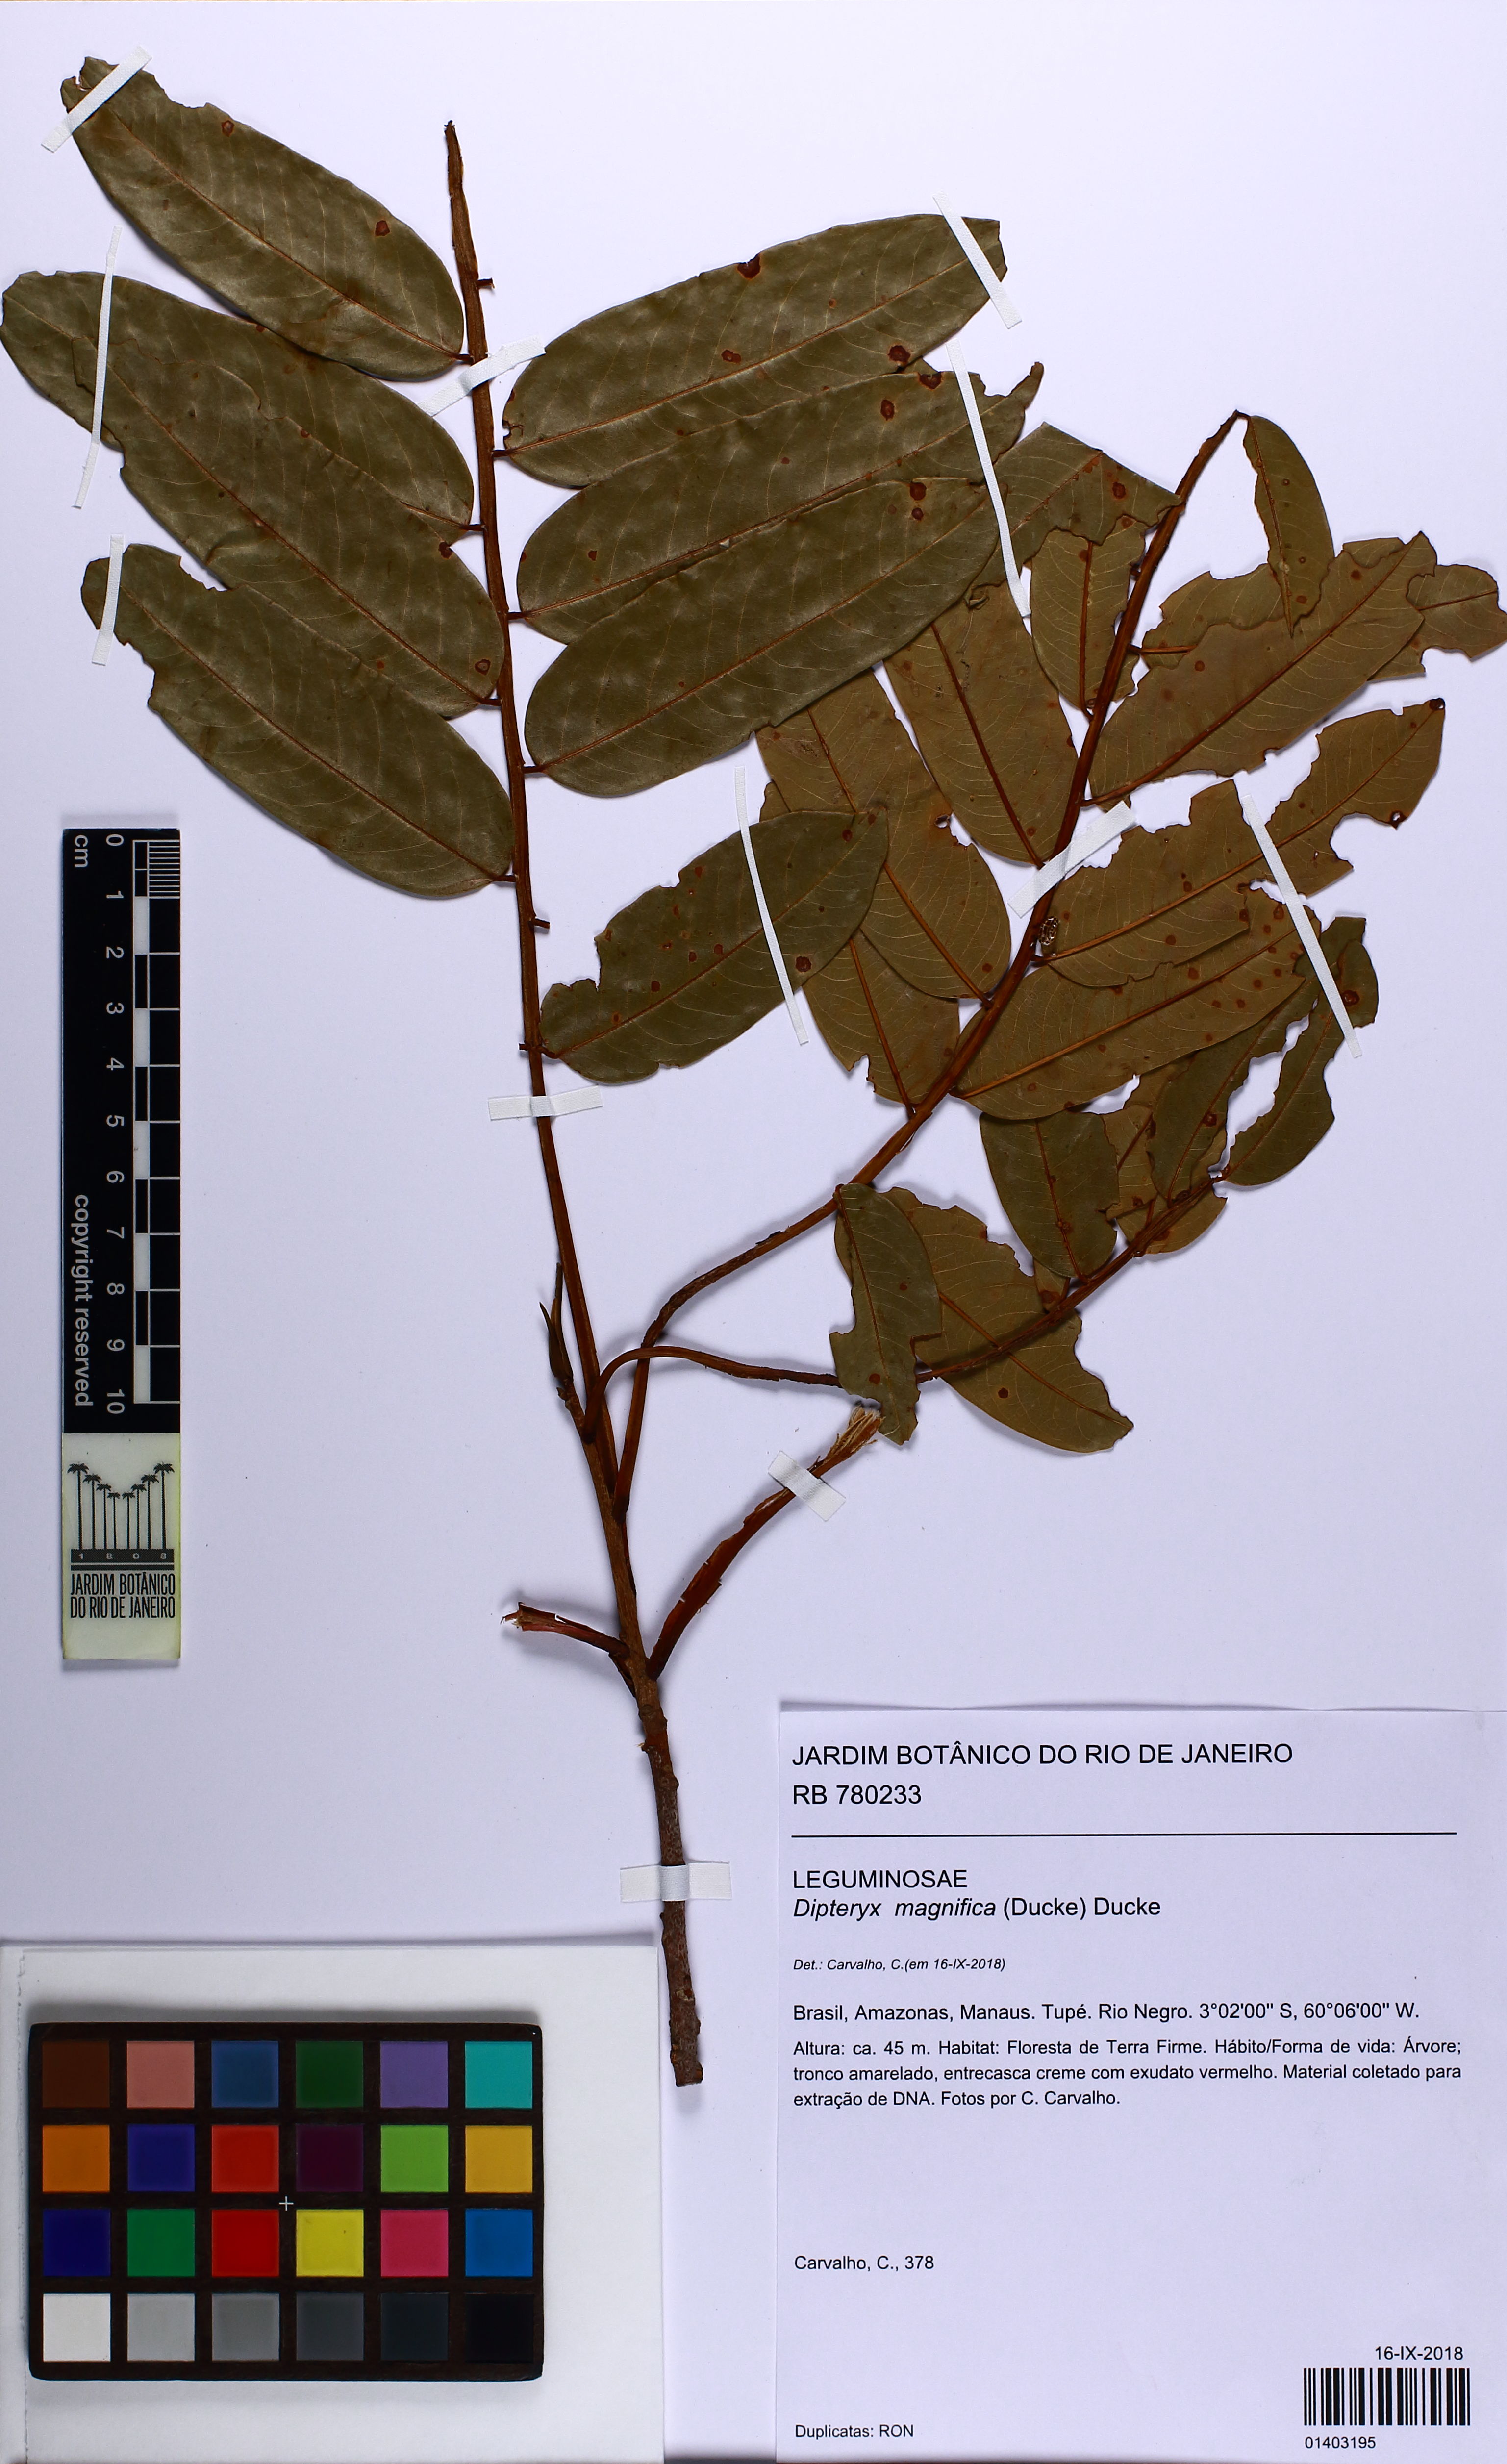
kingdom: Plantae
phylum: Tracheophyta
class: Magnoliopsida
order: Fabales
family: Fabaceae
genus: Dipteryx
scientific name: Dipteryx magnifica
